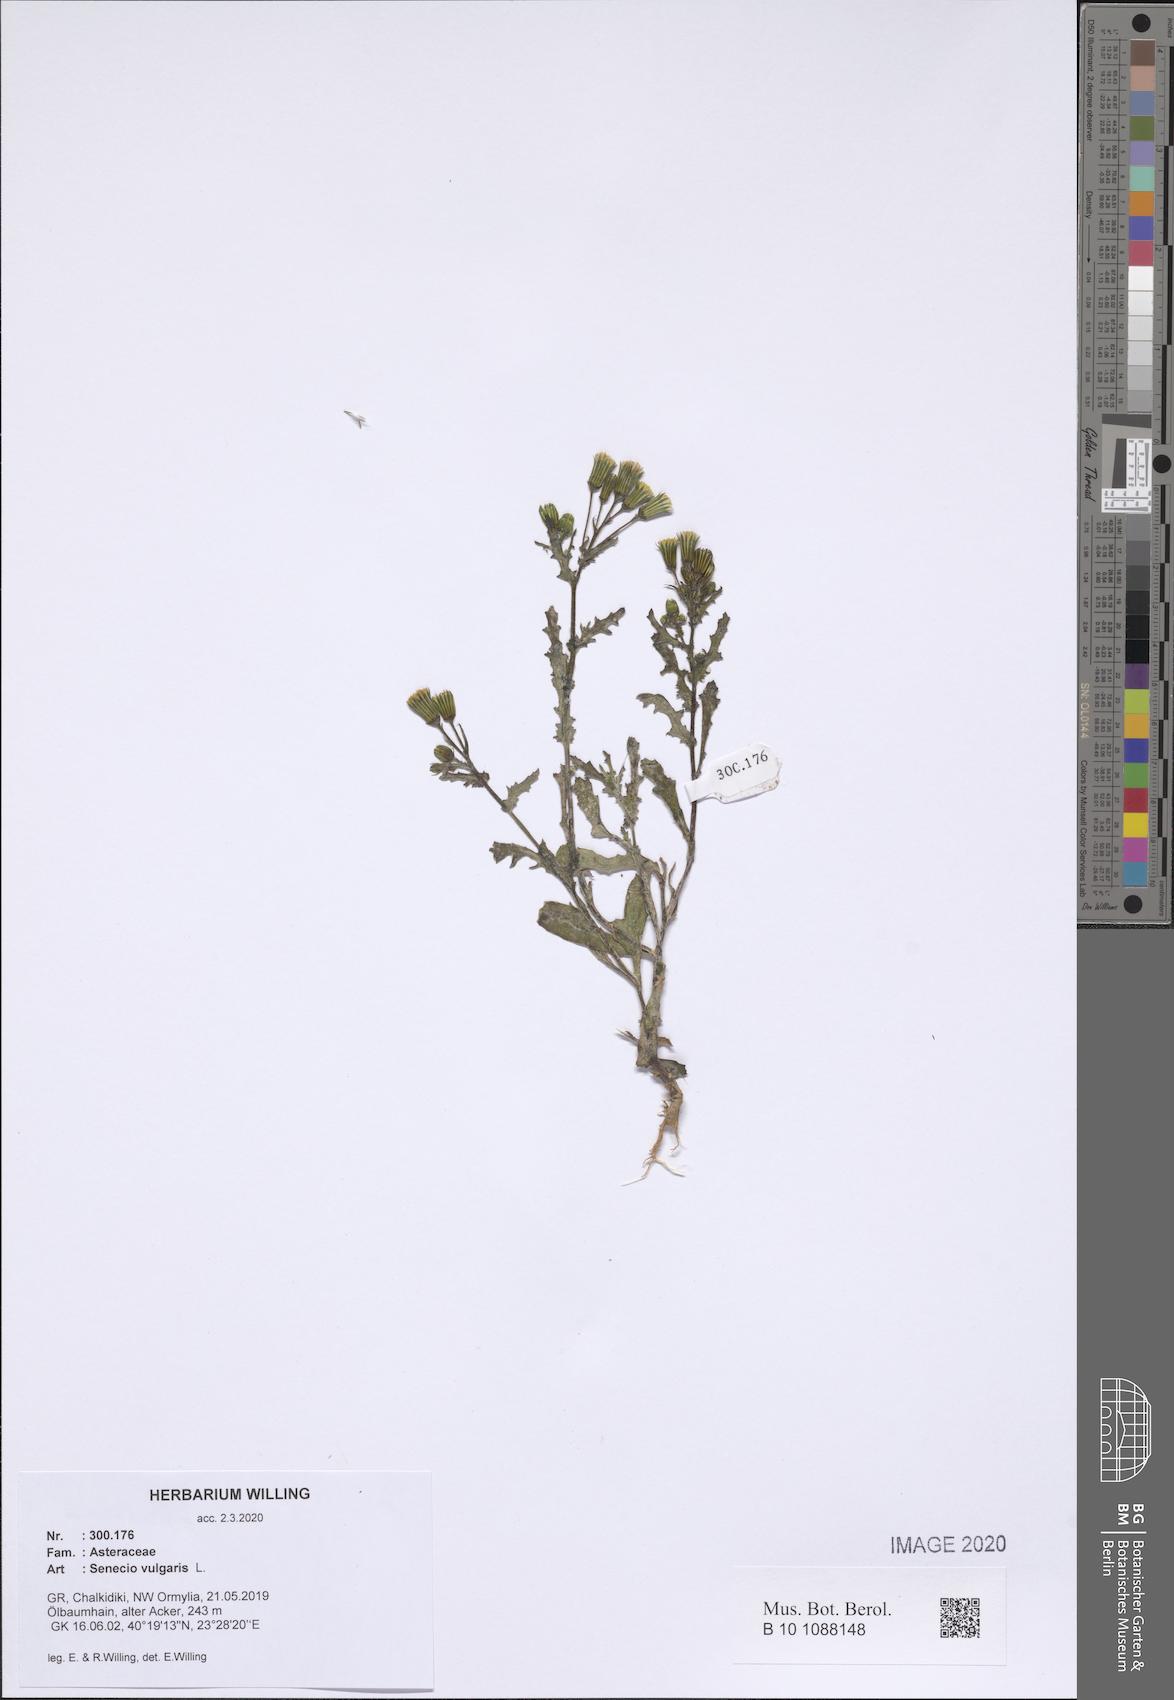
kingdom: Plantae
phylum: Tracheophyta
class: Magnoliopsida
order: Asterales
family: Asteraceae
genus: Senecio
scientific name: Senecio vulgaris
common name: Old-man-in-the-spring
